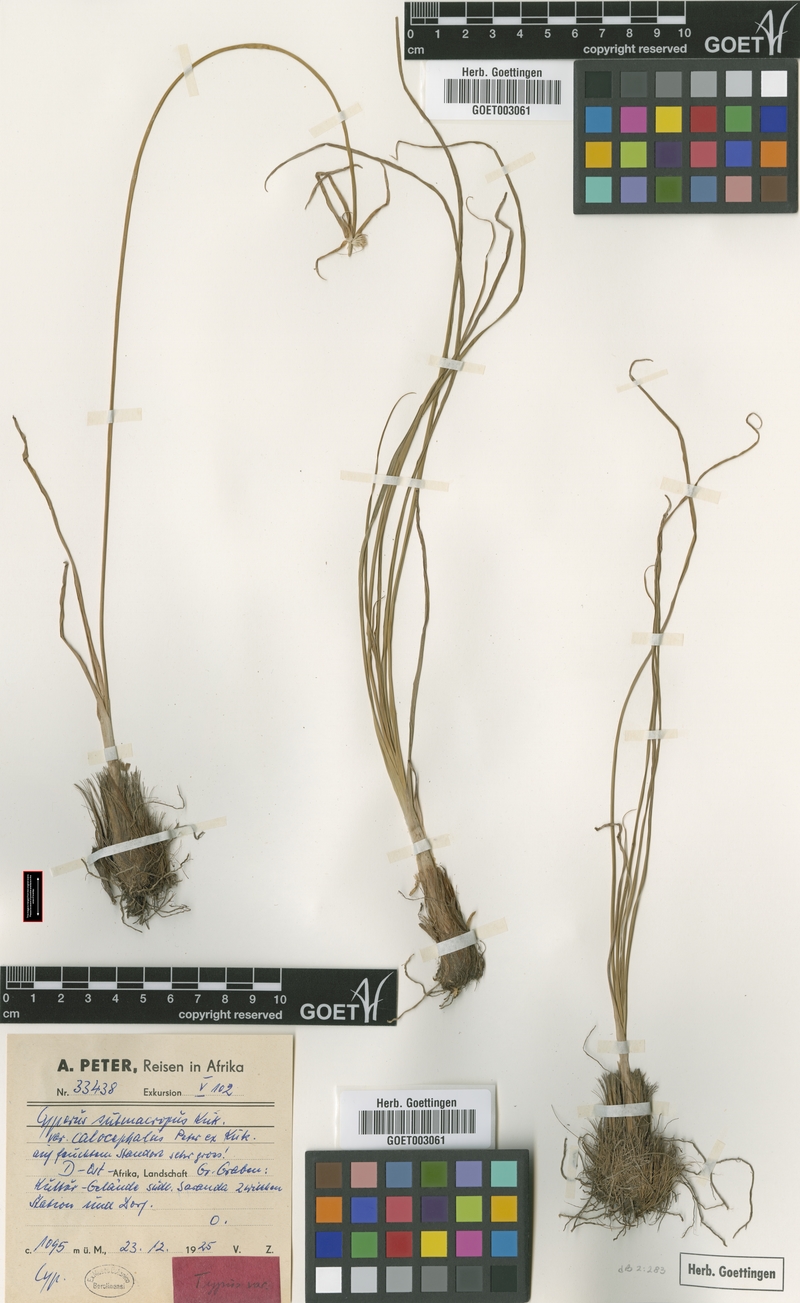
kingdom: Plantae
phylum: Tracheophyta
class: Liliopsida
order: Poales
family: Cyperaceae
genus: Cyperus
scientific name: Cyperus mollipes
